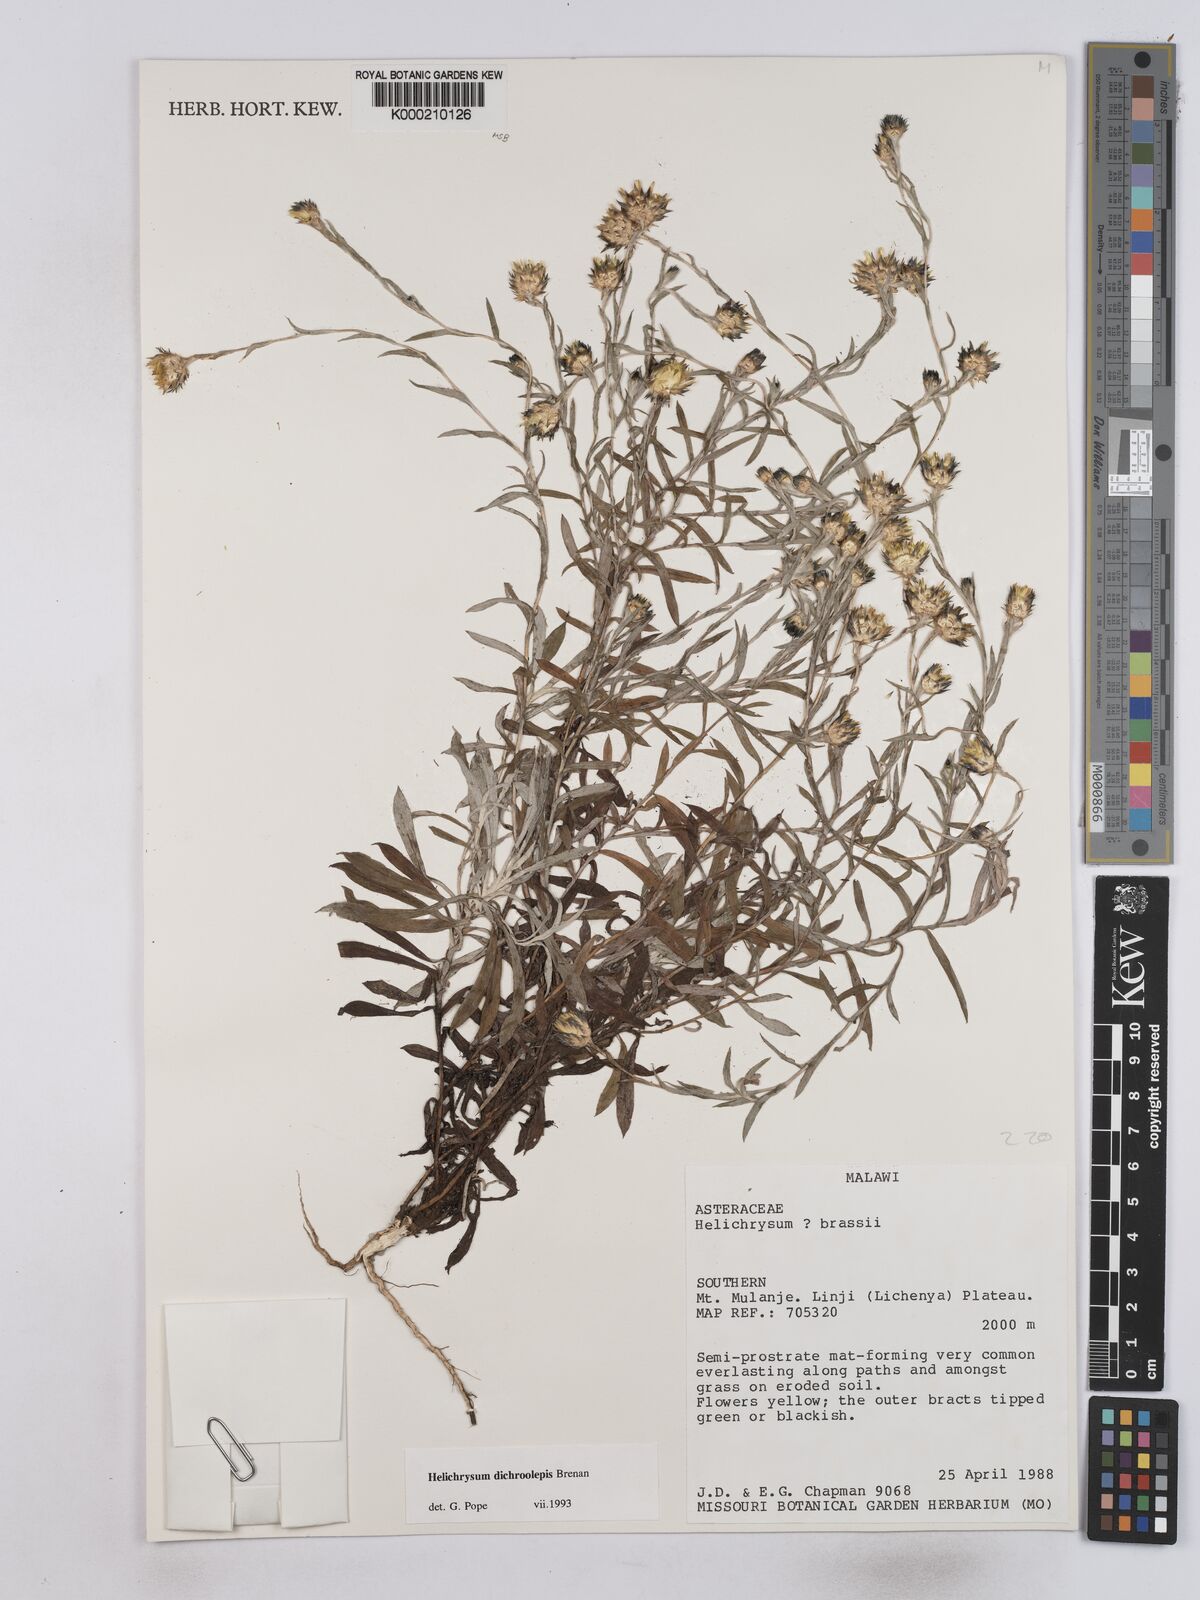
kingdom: Plantae
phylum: Tracheophyta
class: Magnoliopsida
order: Asterales
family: Asteraceae
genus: Helichrysum
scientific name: Helichrysum
